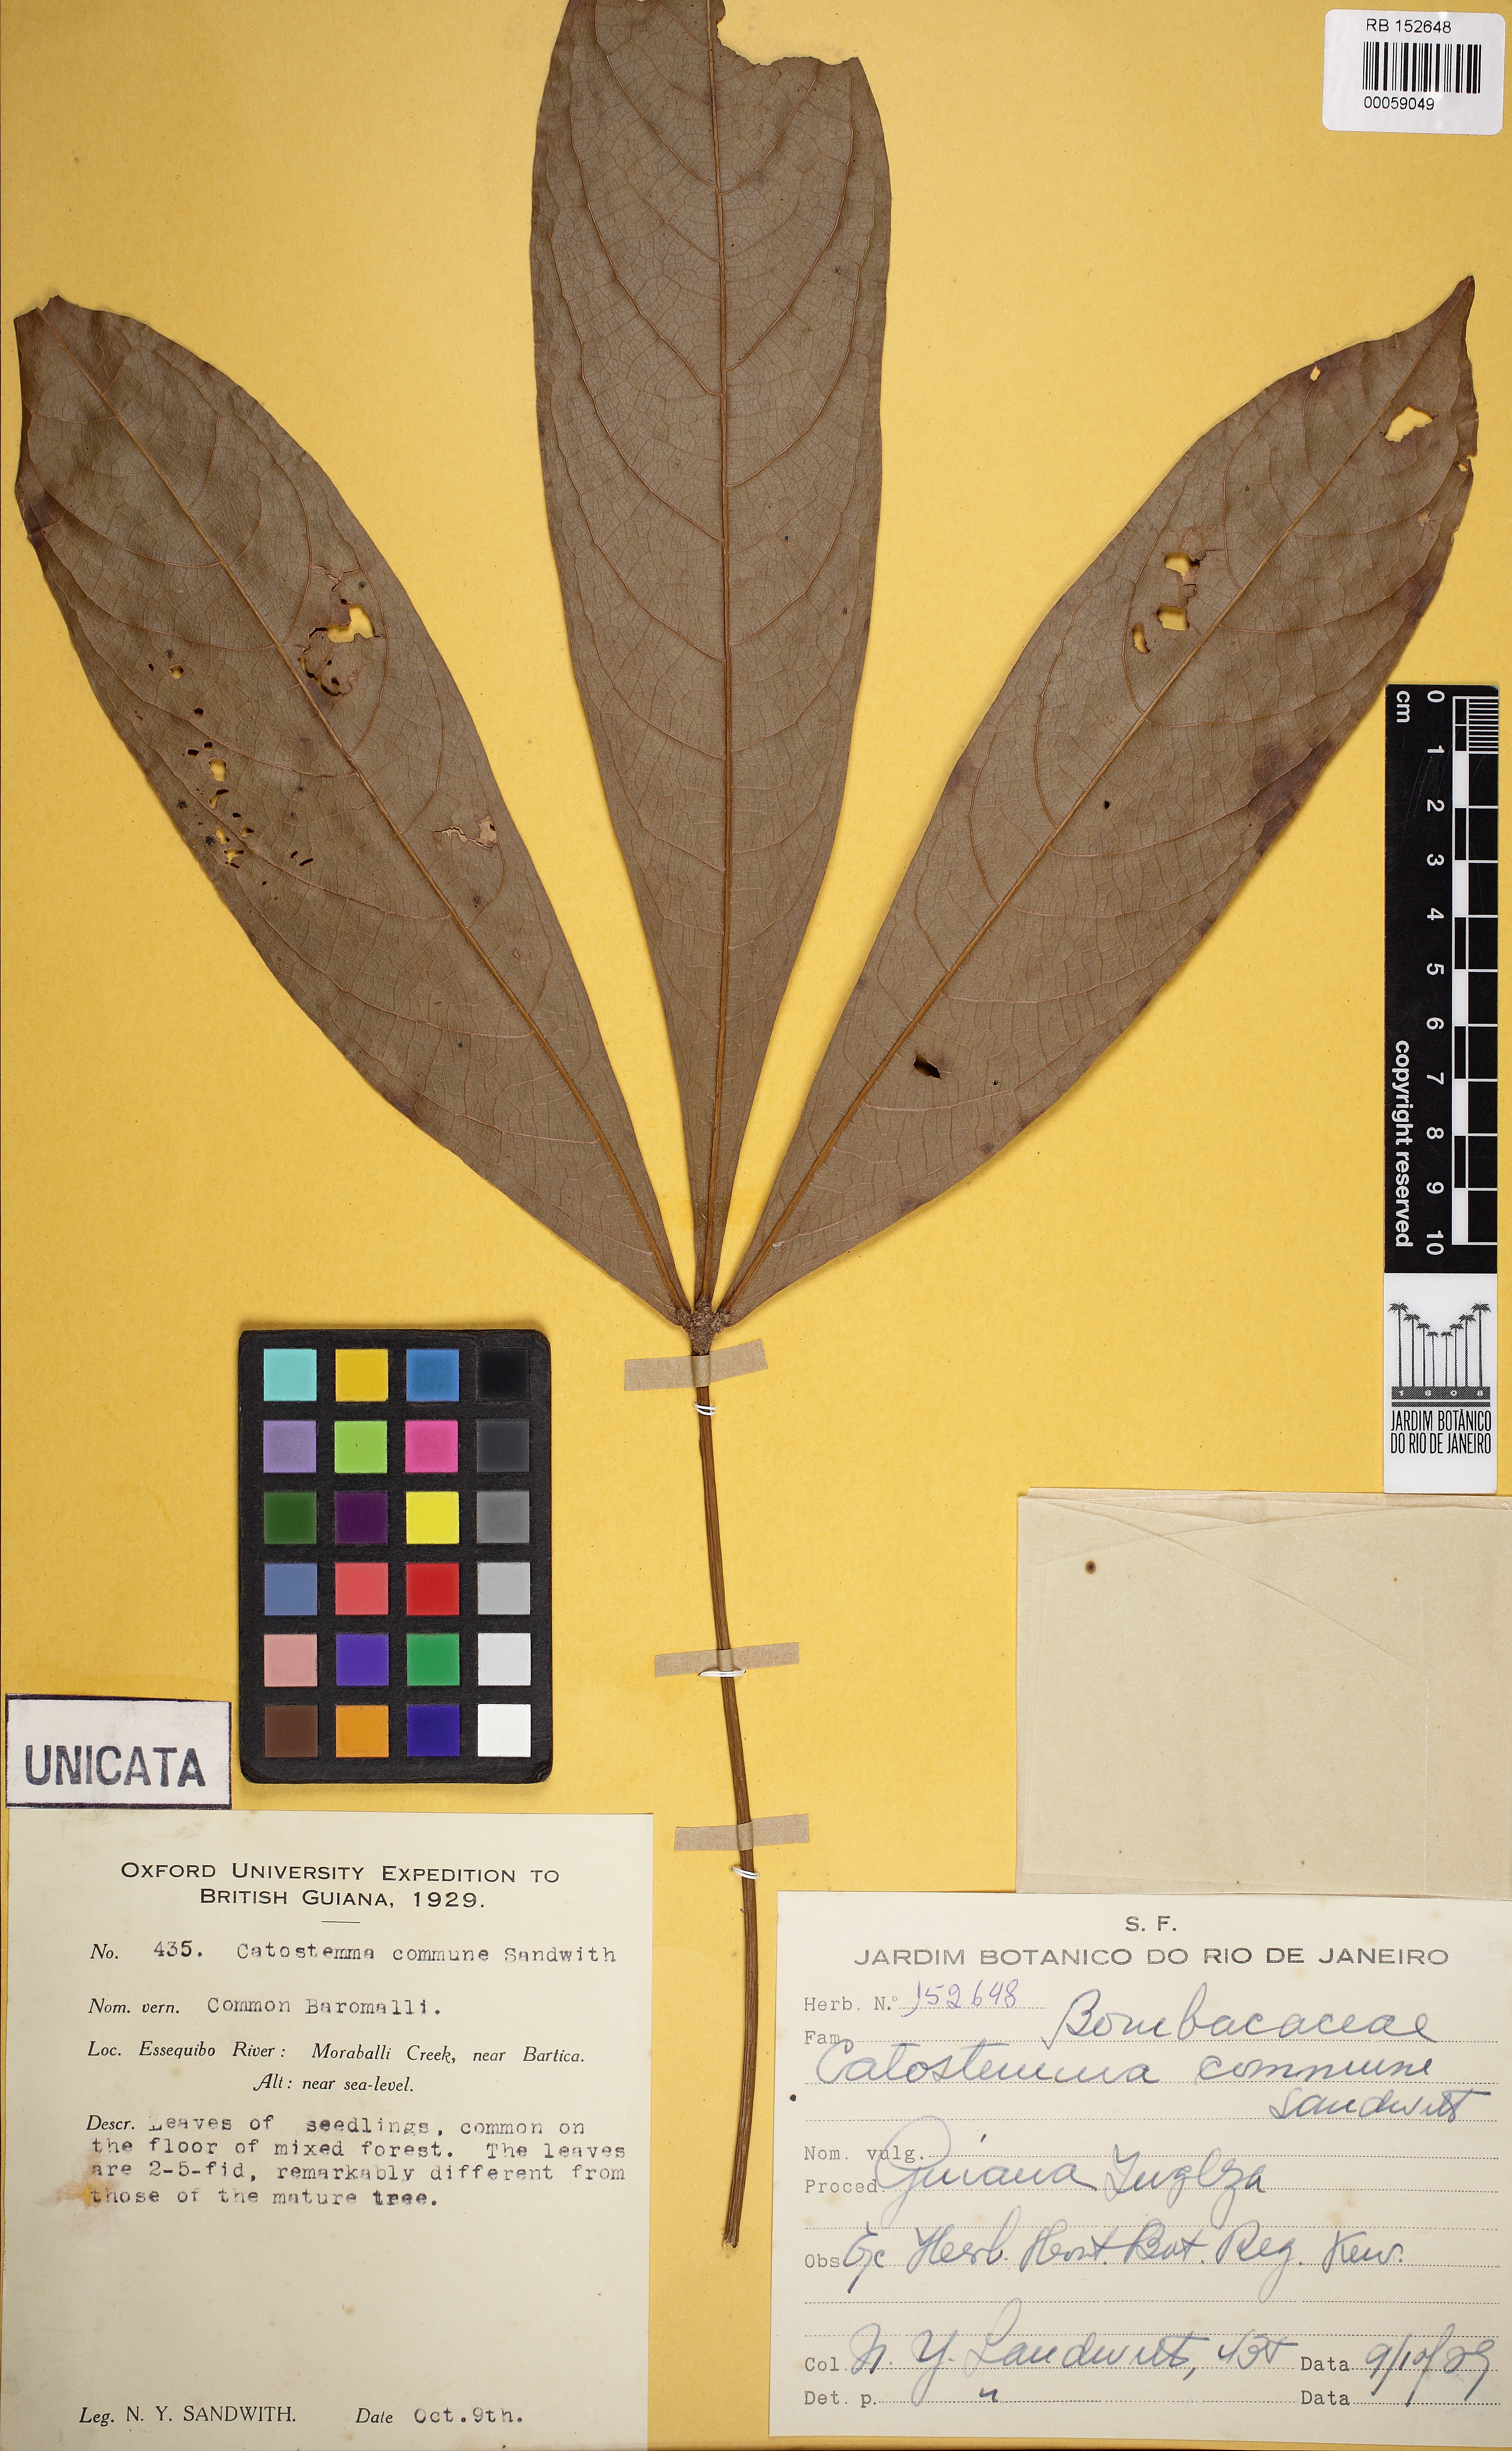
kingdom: Plantae
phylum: Tracheophyta
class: Magnoliopsida
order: Malvales
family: Malvaceae
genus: Catostemma
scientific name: Catostemma commune
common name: Baromalli
